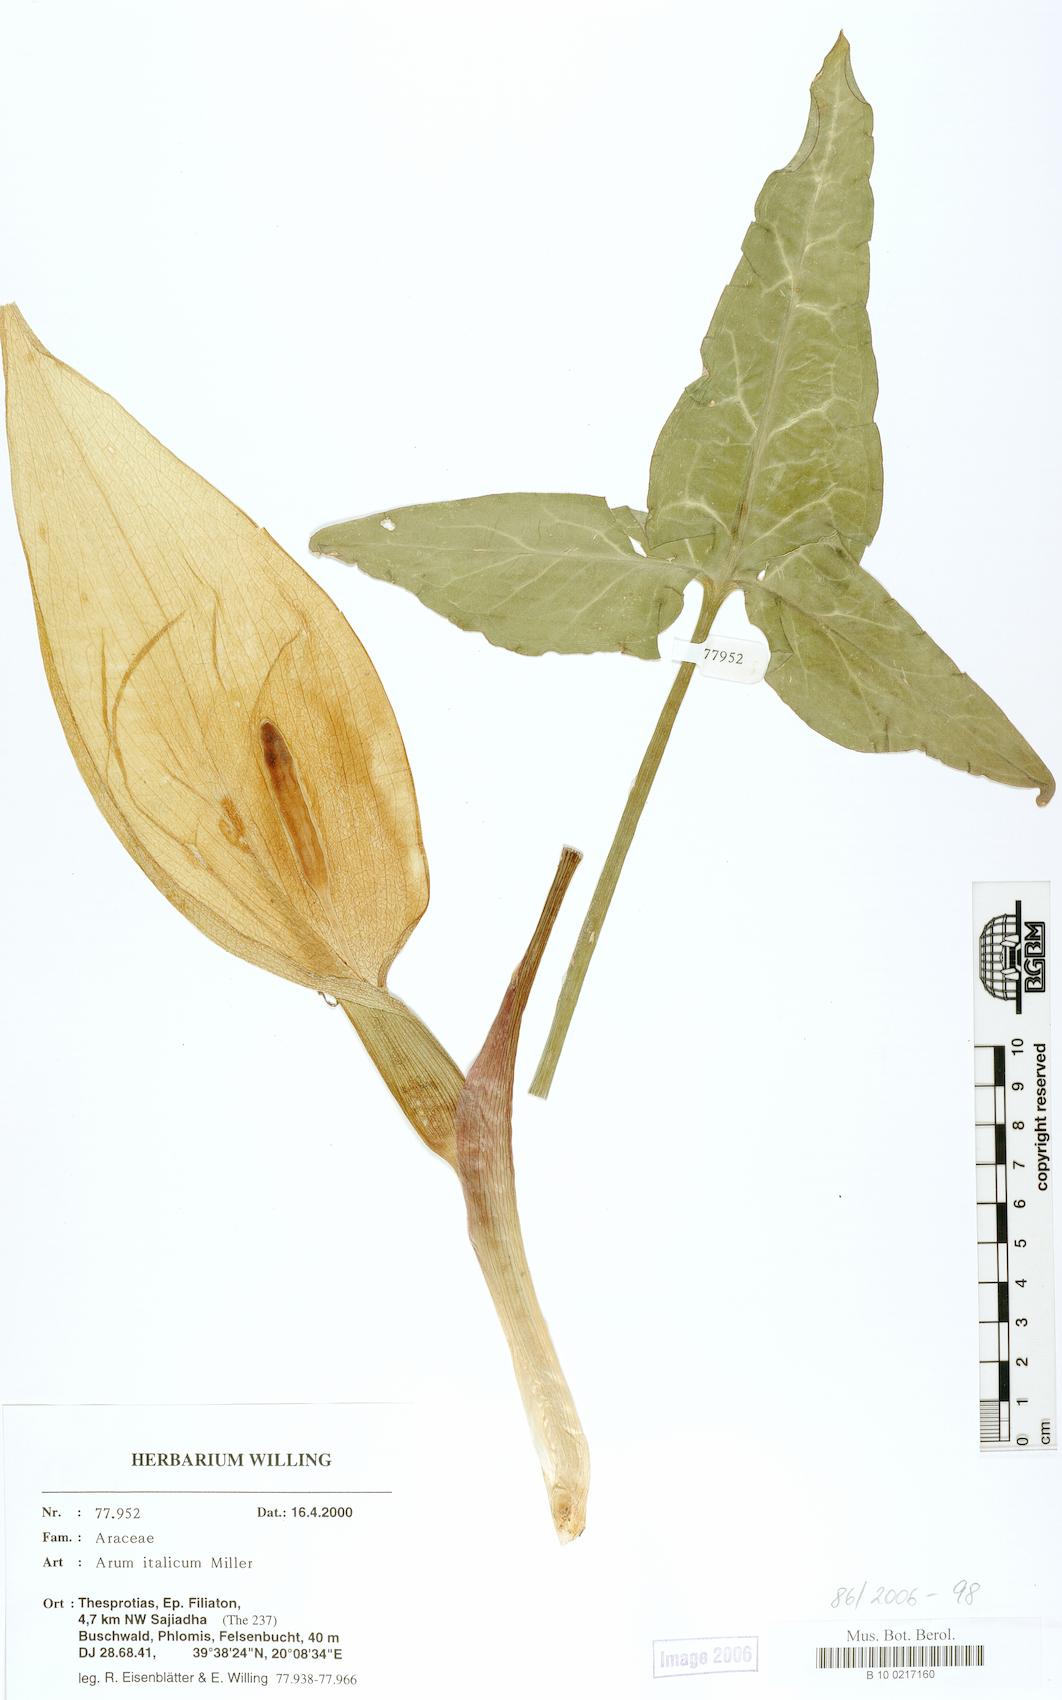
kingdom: Plantae
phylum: Tracheophyta
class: Liliopsida
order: Alismatales
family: Araceae
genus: Arum
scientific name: Arum italicum
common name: Italian lords-and-ladies
